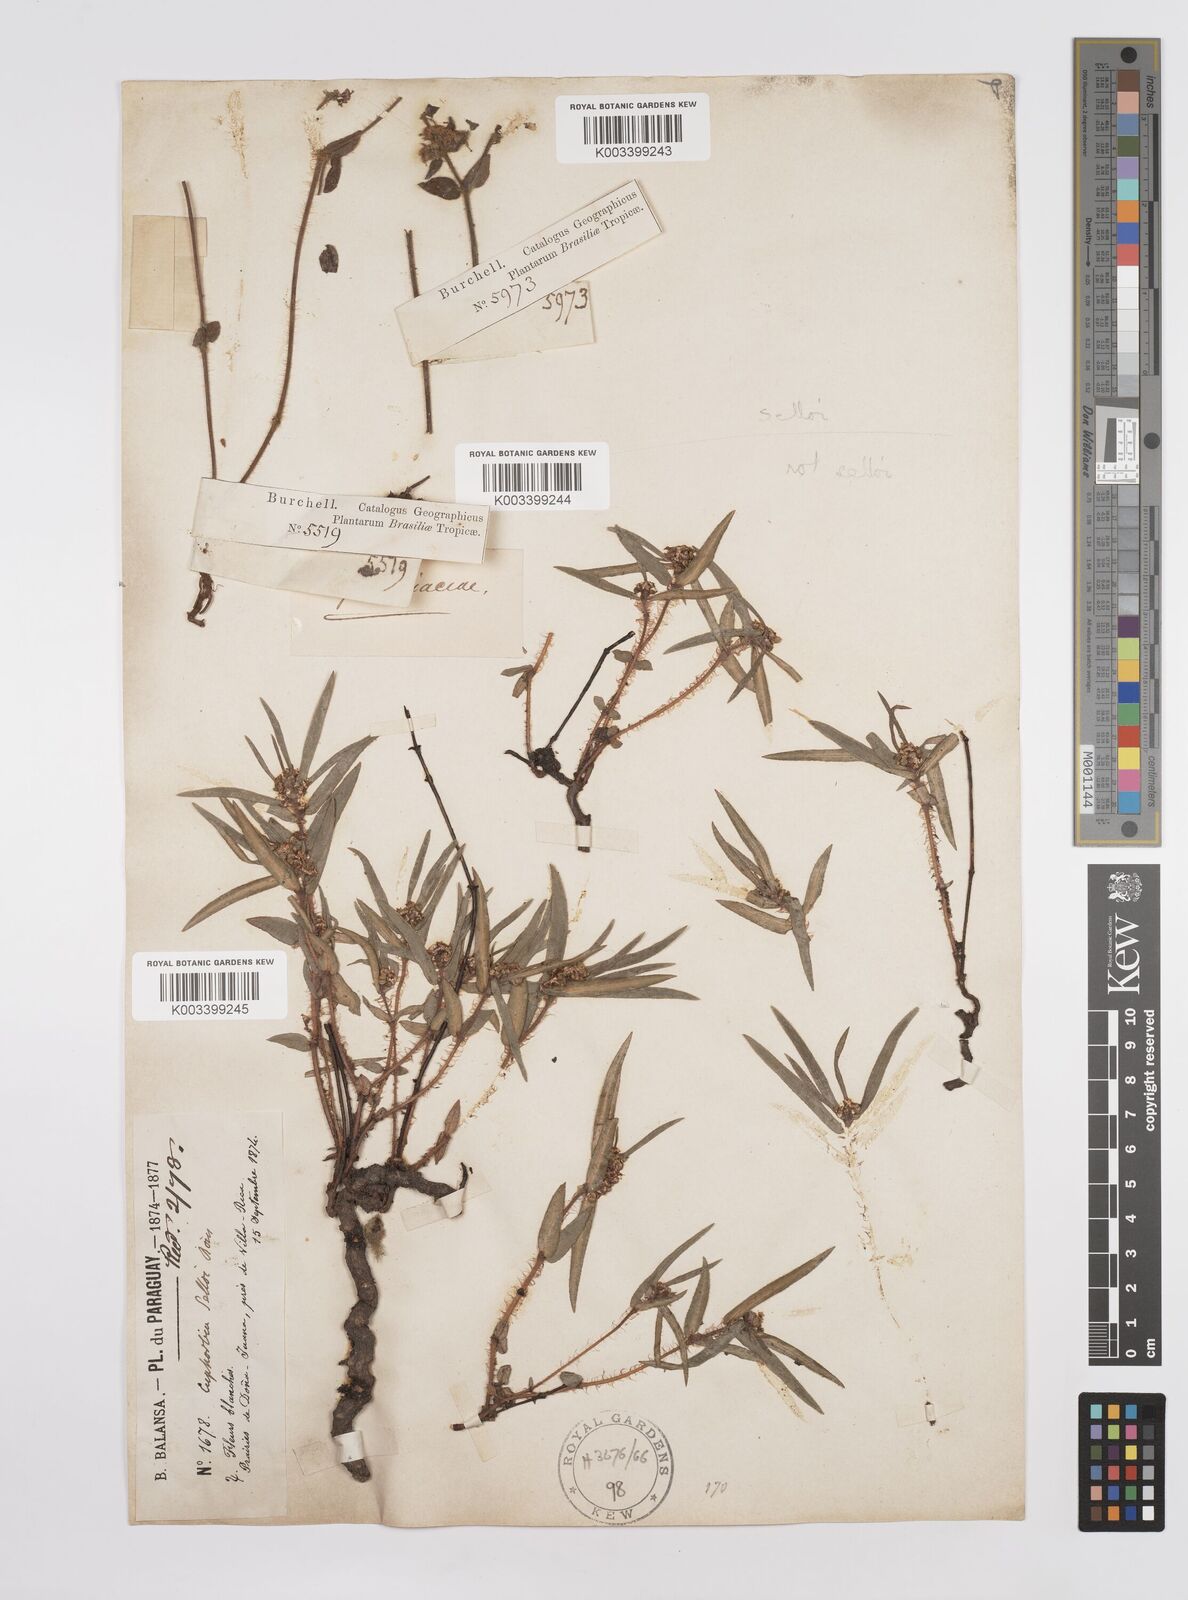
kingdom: Plantae
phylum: Tracheophyta
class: Magnoliopsida
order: Malpighiales
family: Euphorbiaceae
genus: Euphorbia
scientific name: Euphorbia selloi
